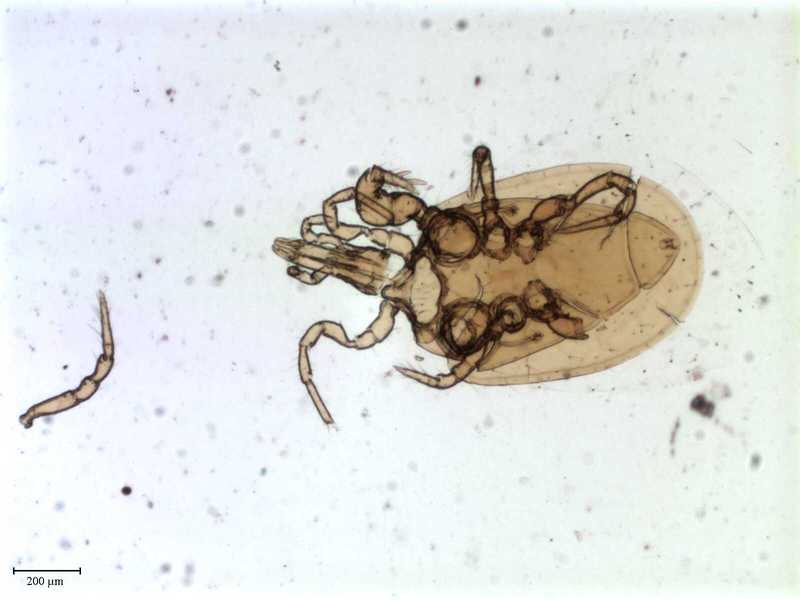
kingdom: Animalia
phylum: Arthropoda
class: Arachnida
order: Mesostigmata
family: Pachylaelapidae
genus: Pachylaelaps
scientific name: Pachylaelaps turgidus
